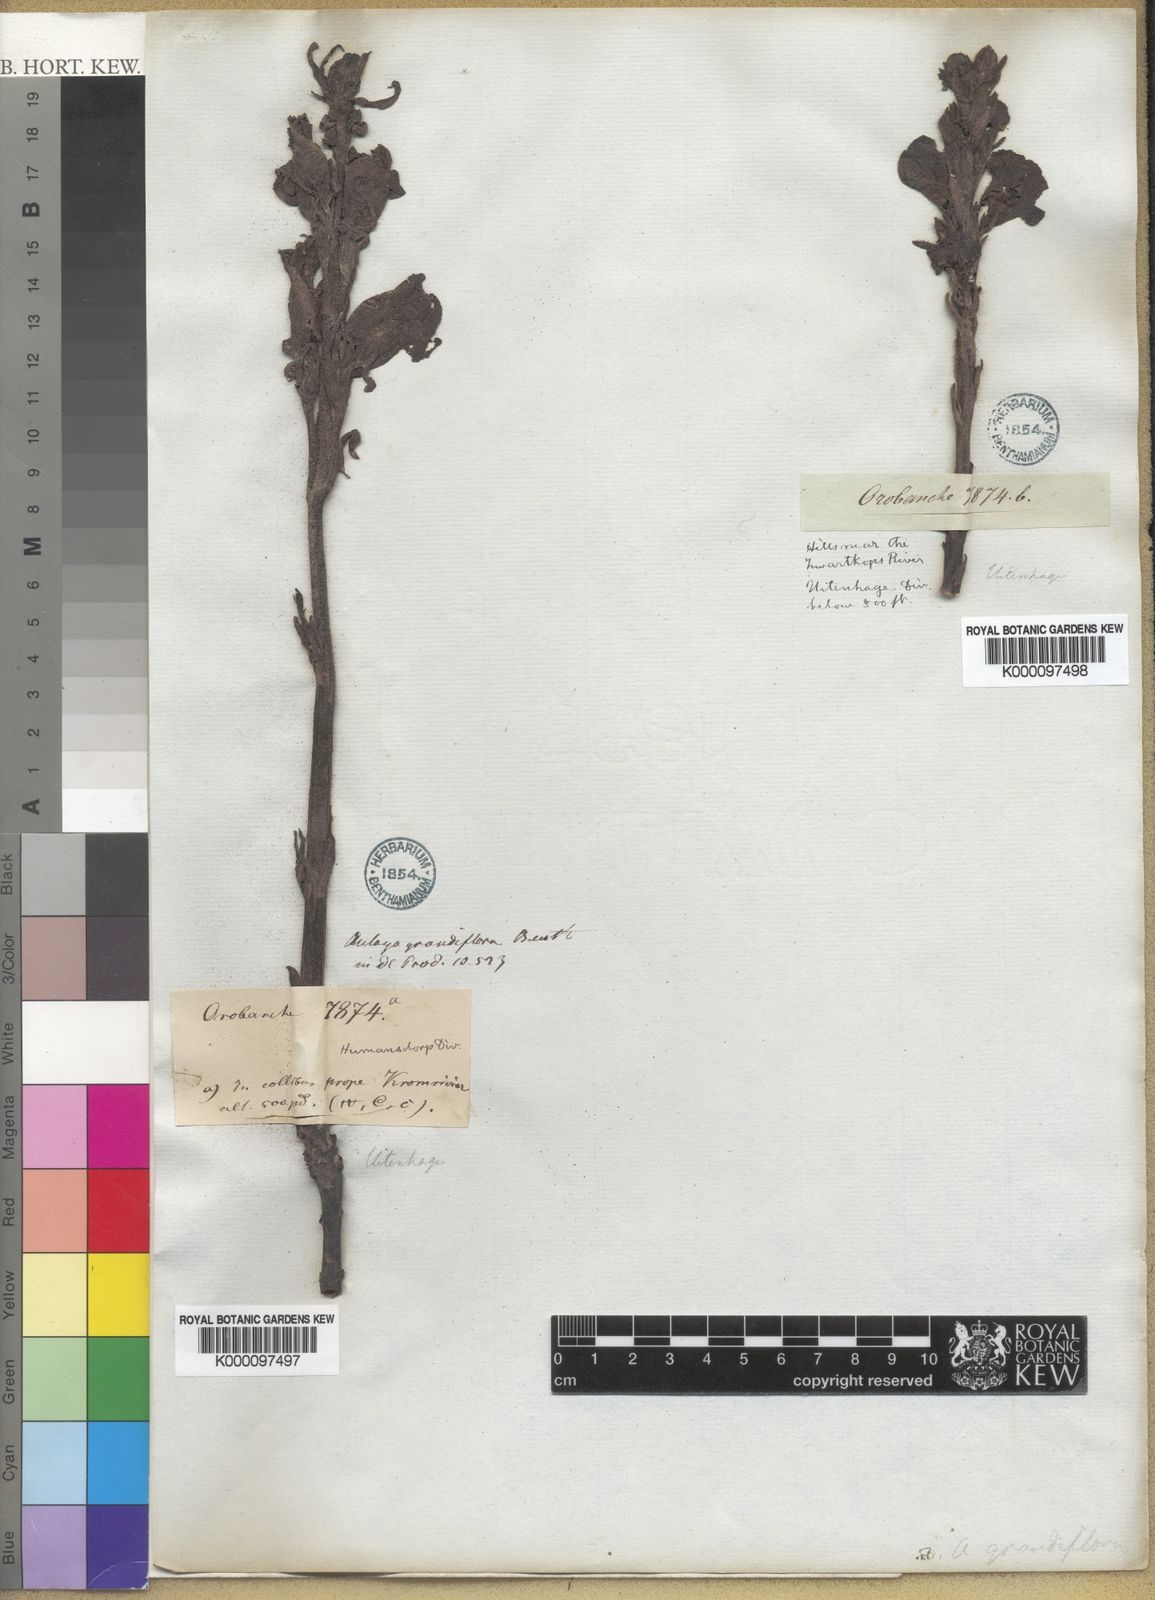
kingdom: Plantae
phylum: Tracheophyta
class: Magnoliopsida
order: Lamiales
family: Orobanchaceae
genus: Harveya
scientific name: Harveya
